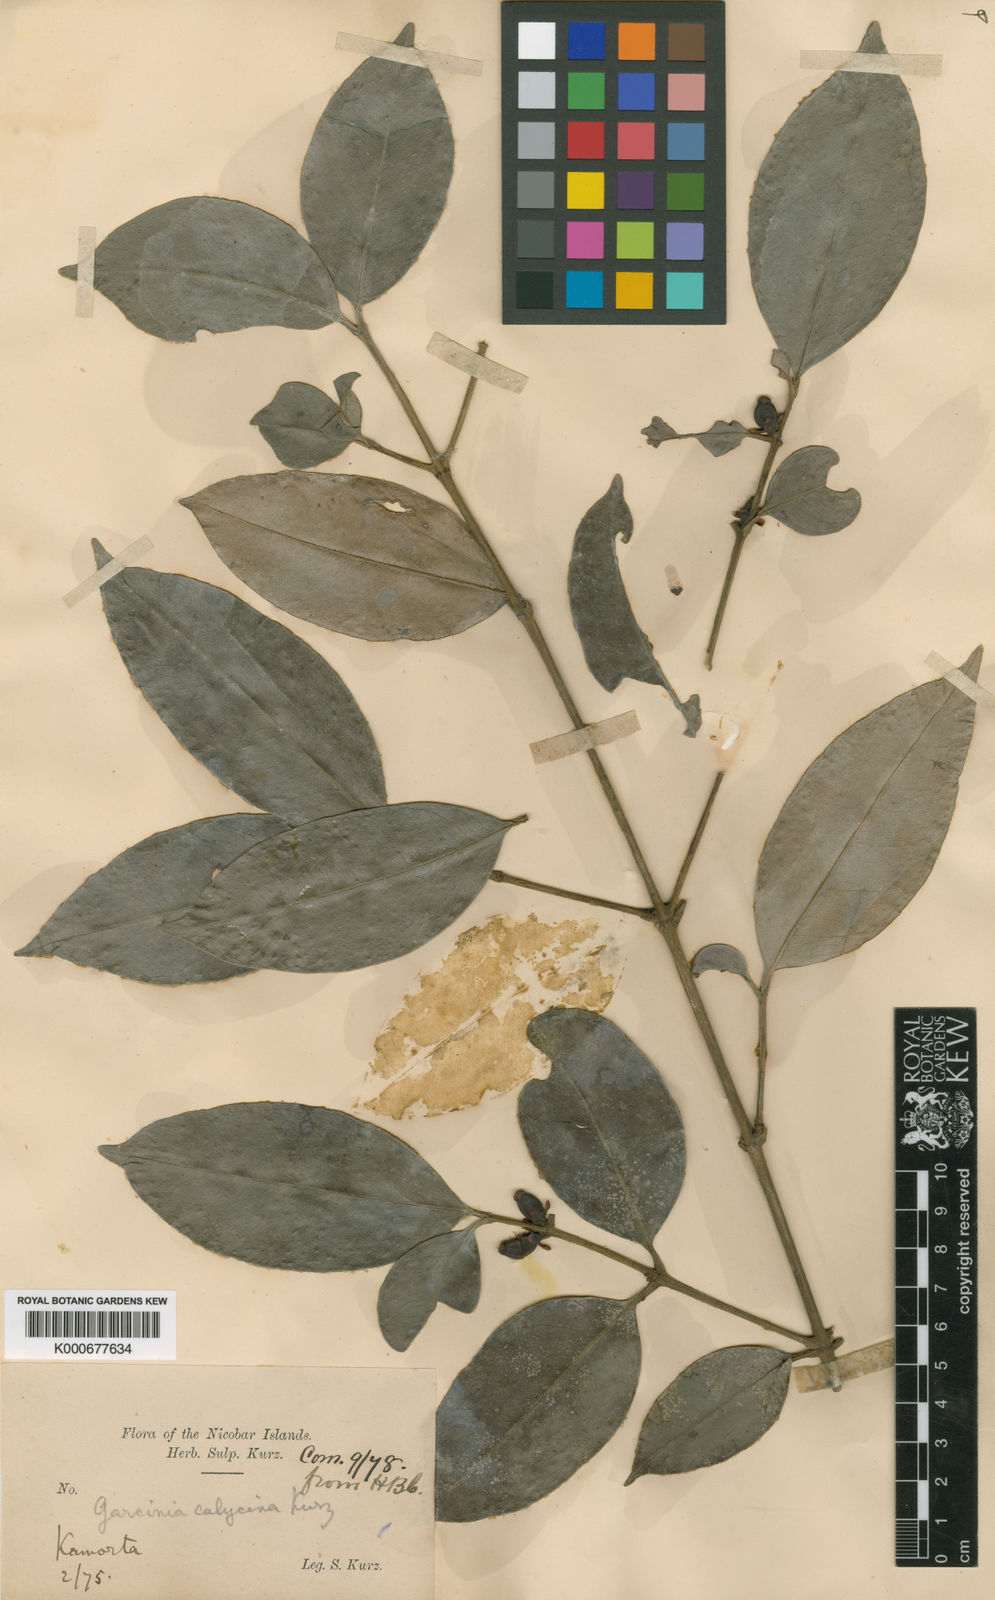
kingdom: Plantae
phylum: Tracheophyta
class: Magnoliopsida
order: Malpighiales
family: Clusiaceae
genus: Garcinia
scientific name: Garcinia calycina
